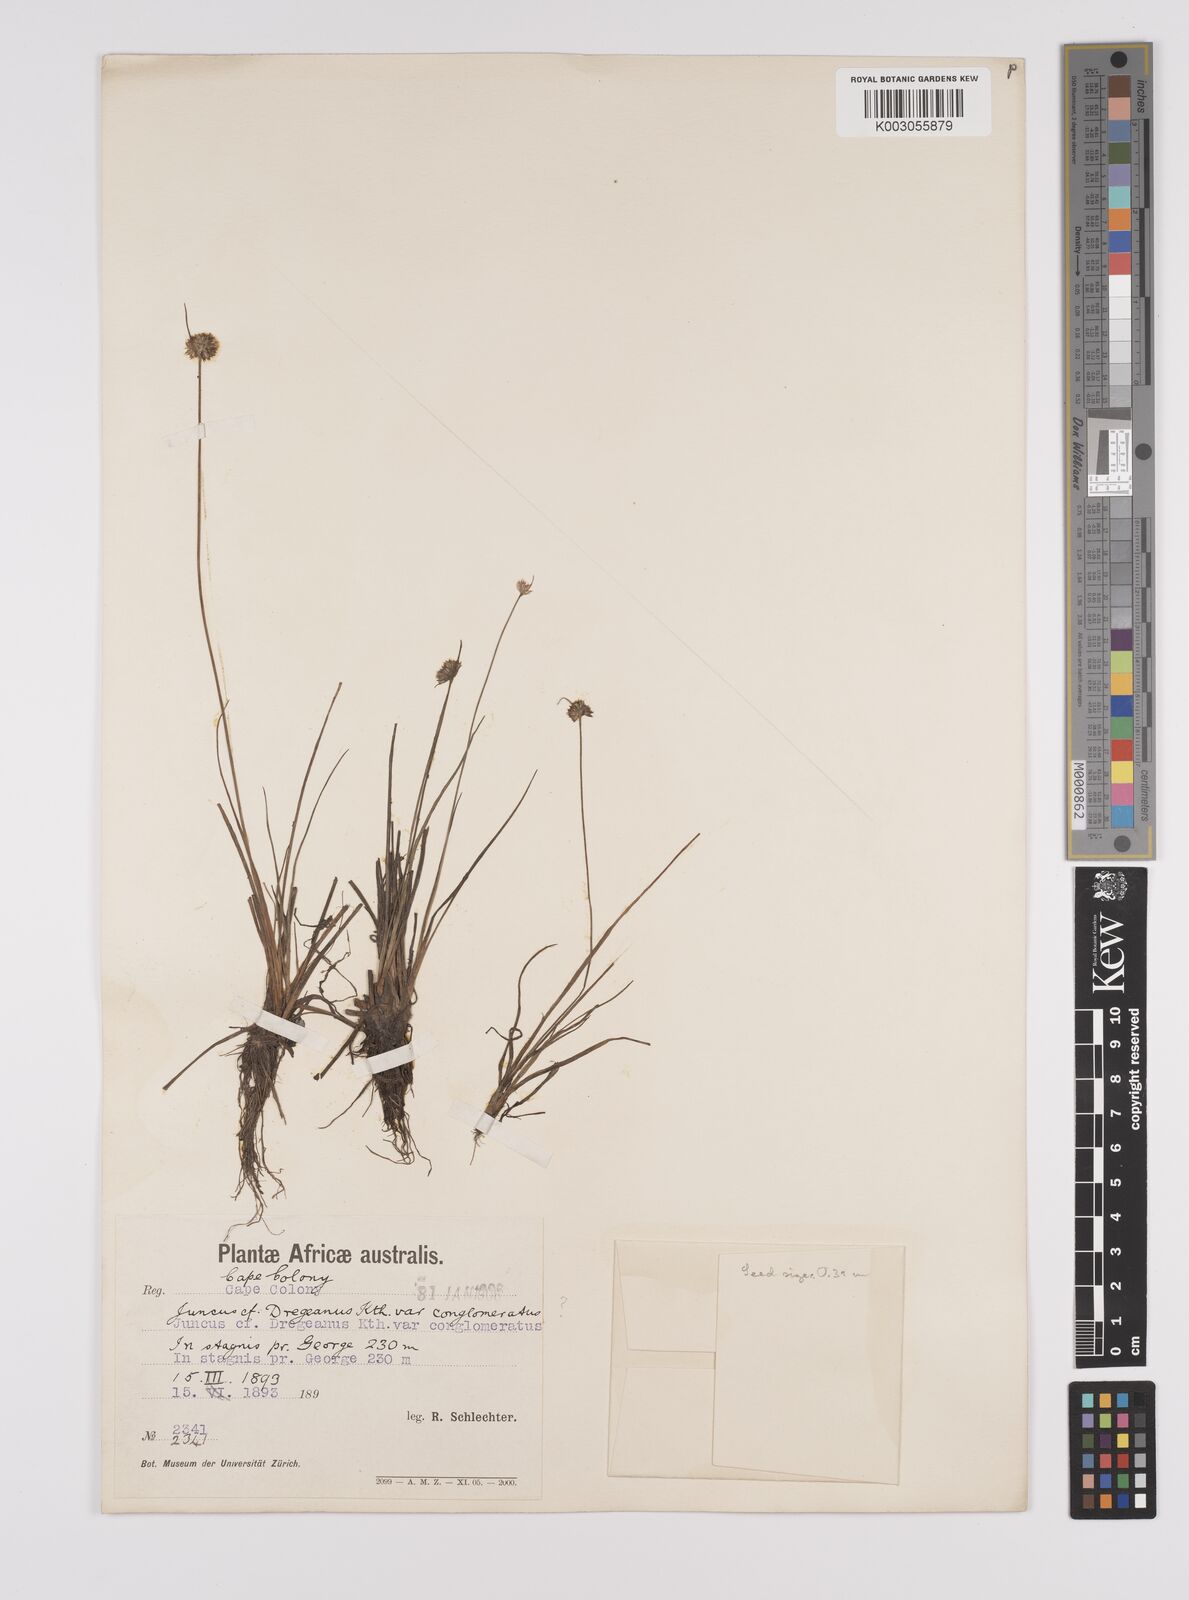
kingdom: Plantae
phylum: Tracheophyta
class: Liliopsida
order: Poales
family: Juncaceae
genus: Juncus
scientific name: Juncus dregeanus
